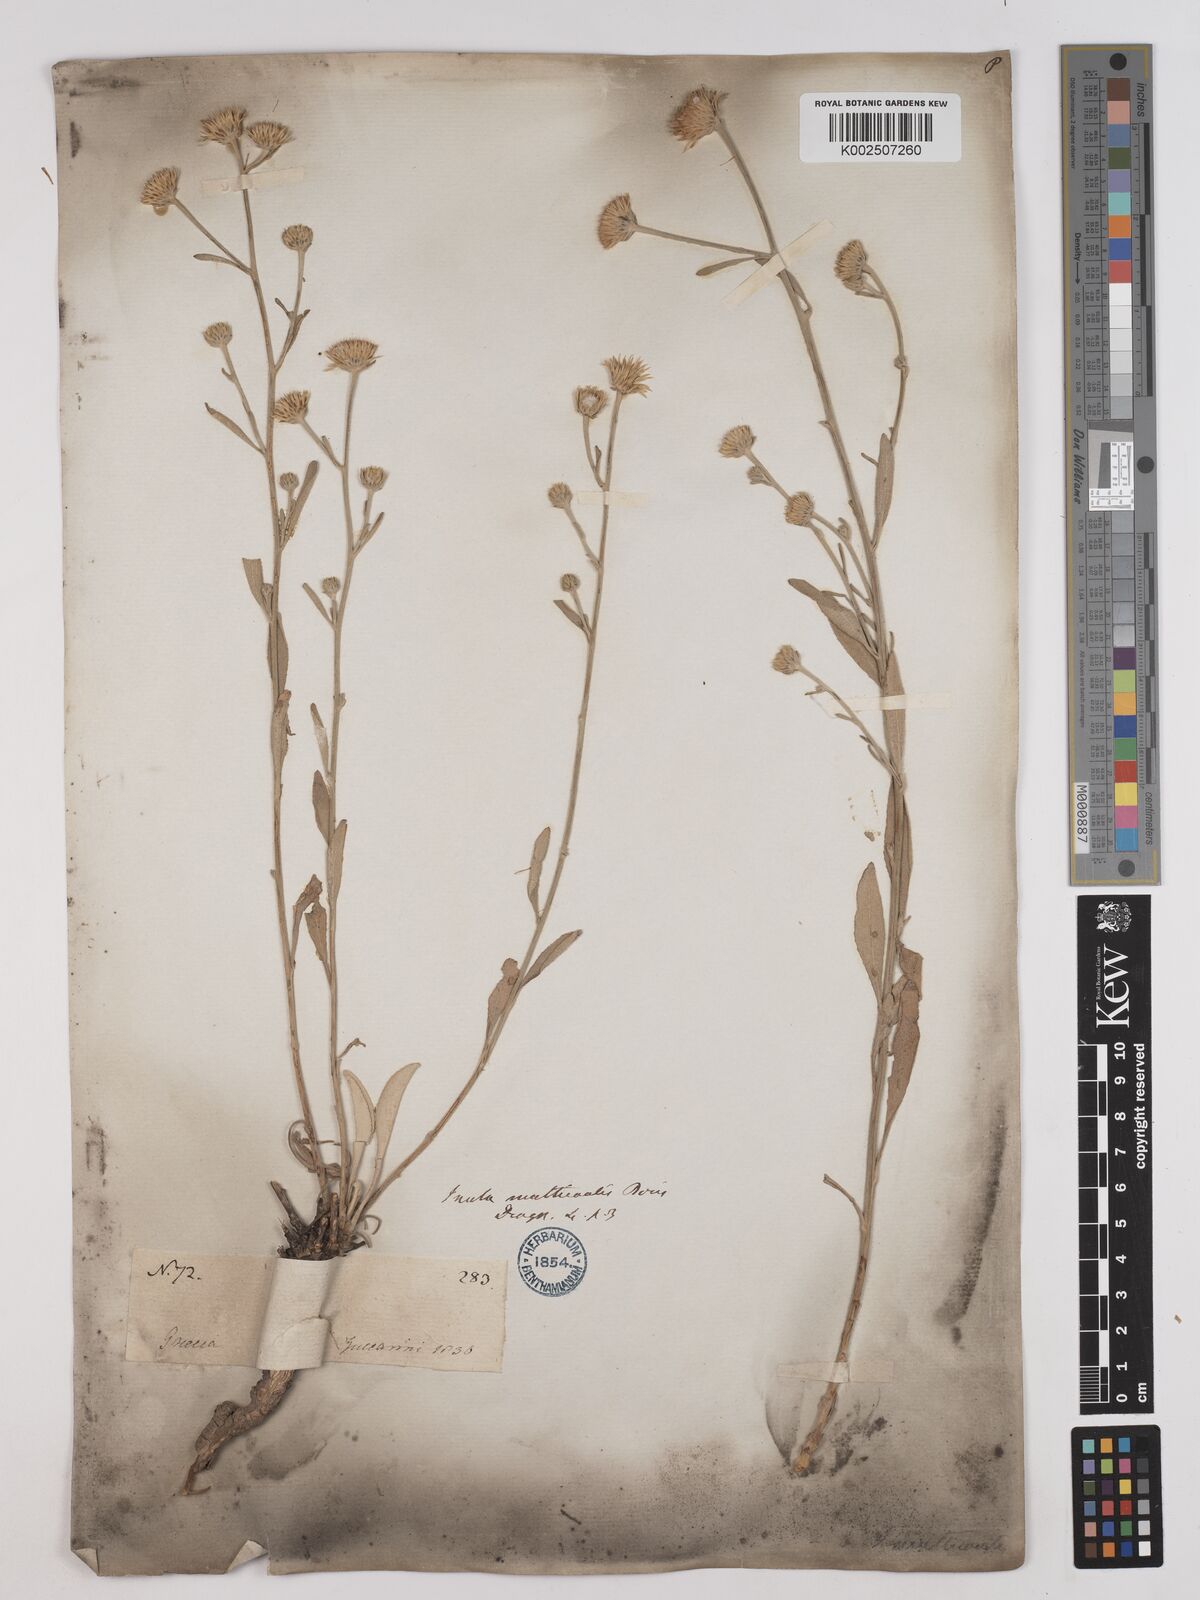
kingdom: Plantae
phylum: Tracheophyta
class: Magnoliopsida
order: Asterales
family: Asteraceae
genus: Pentanema
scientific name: Pentanema verbascifolium
